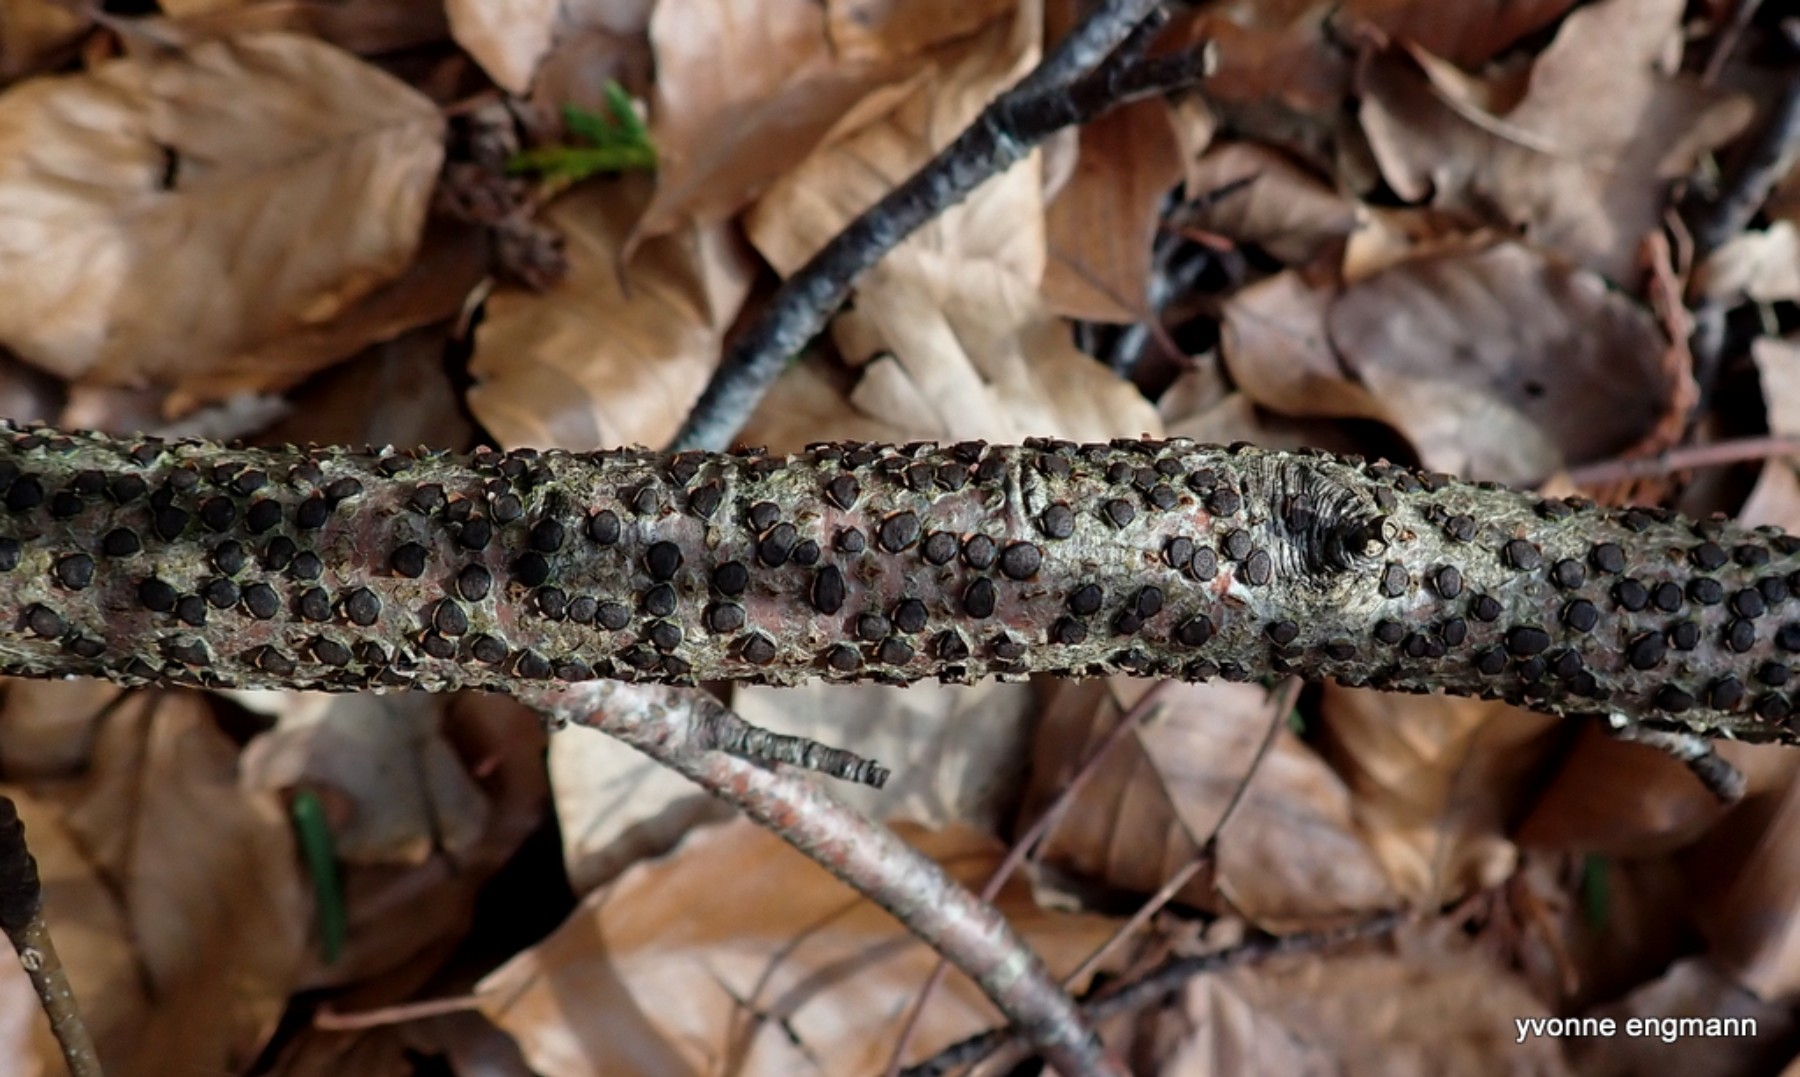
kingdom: Fungi
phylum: Ascomycota
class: Sordariomycetes
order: Xylariales
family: Diatrypaceae
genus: Diatrype
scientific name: Diatrype disciformis
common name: kant-kulskorpe
